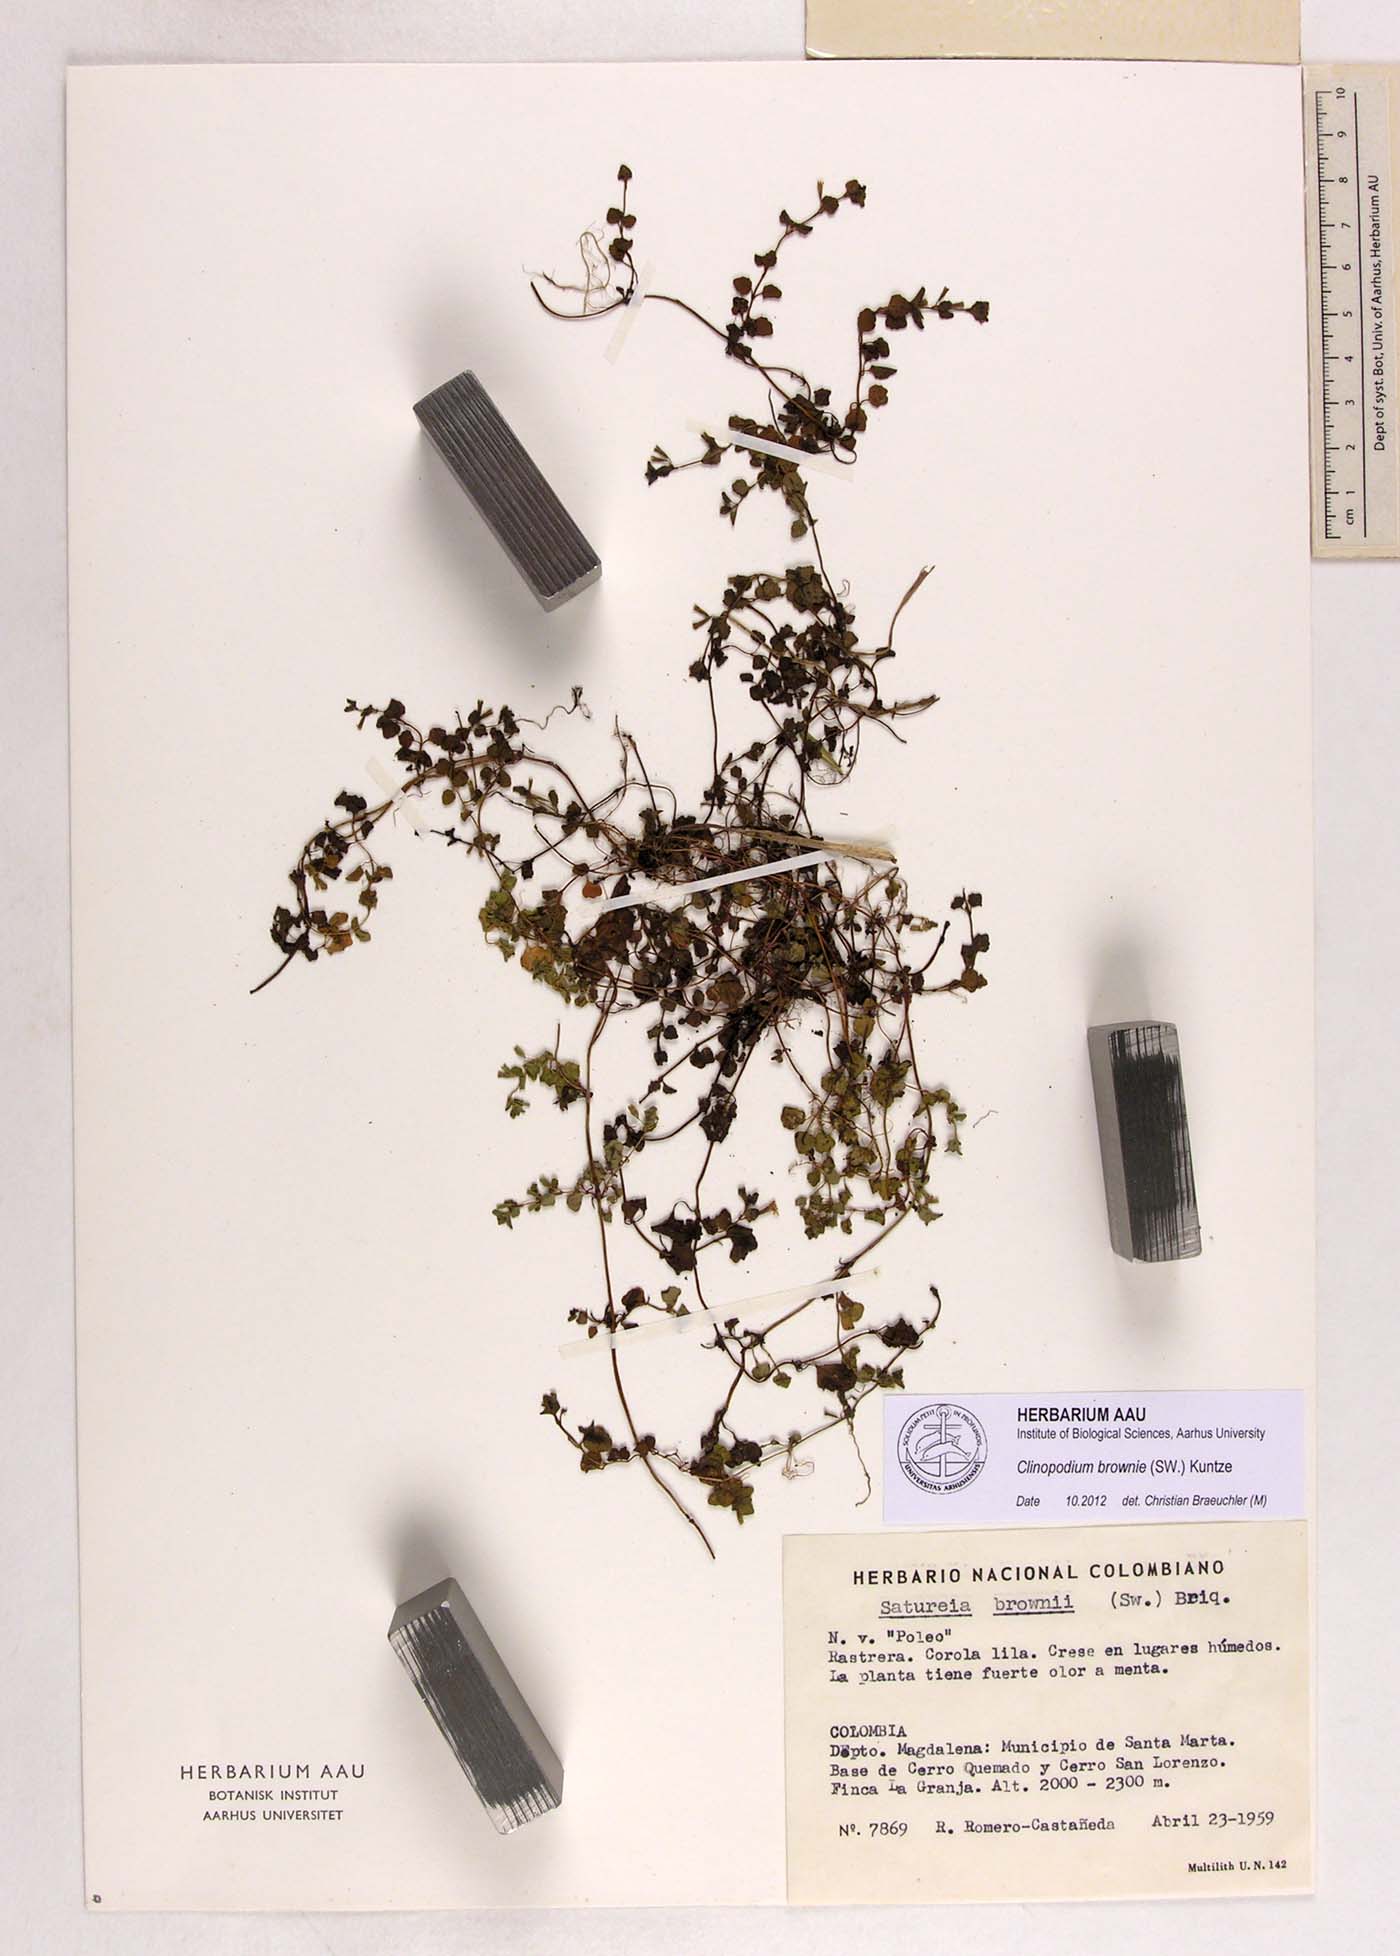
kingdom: Plantae
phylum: Tracheophyta
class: Magnoliopsida
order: Lamiales
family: Lamiaceae
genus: Clinopodium
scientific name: Clinopodium brownei
